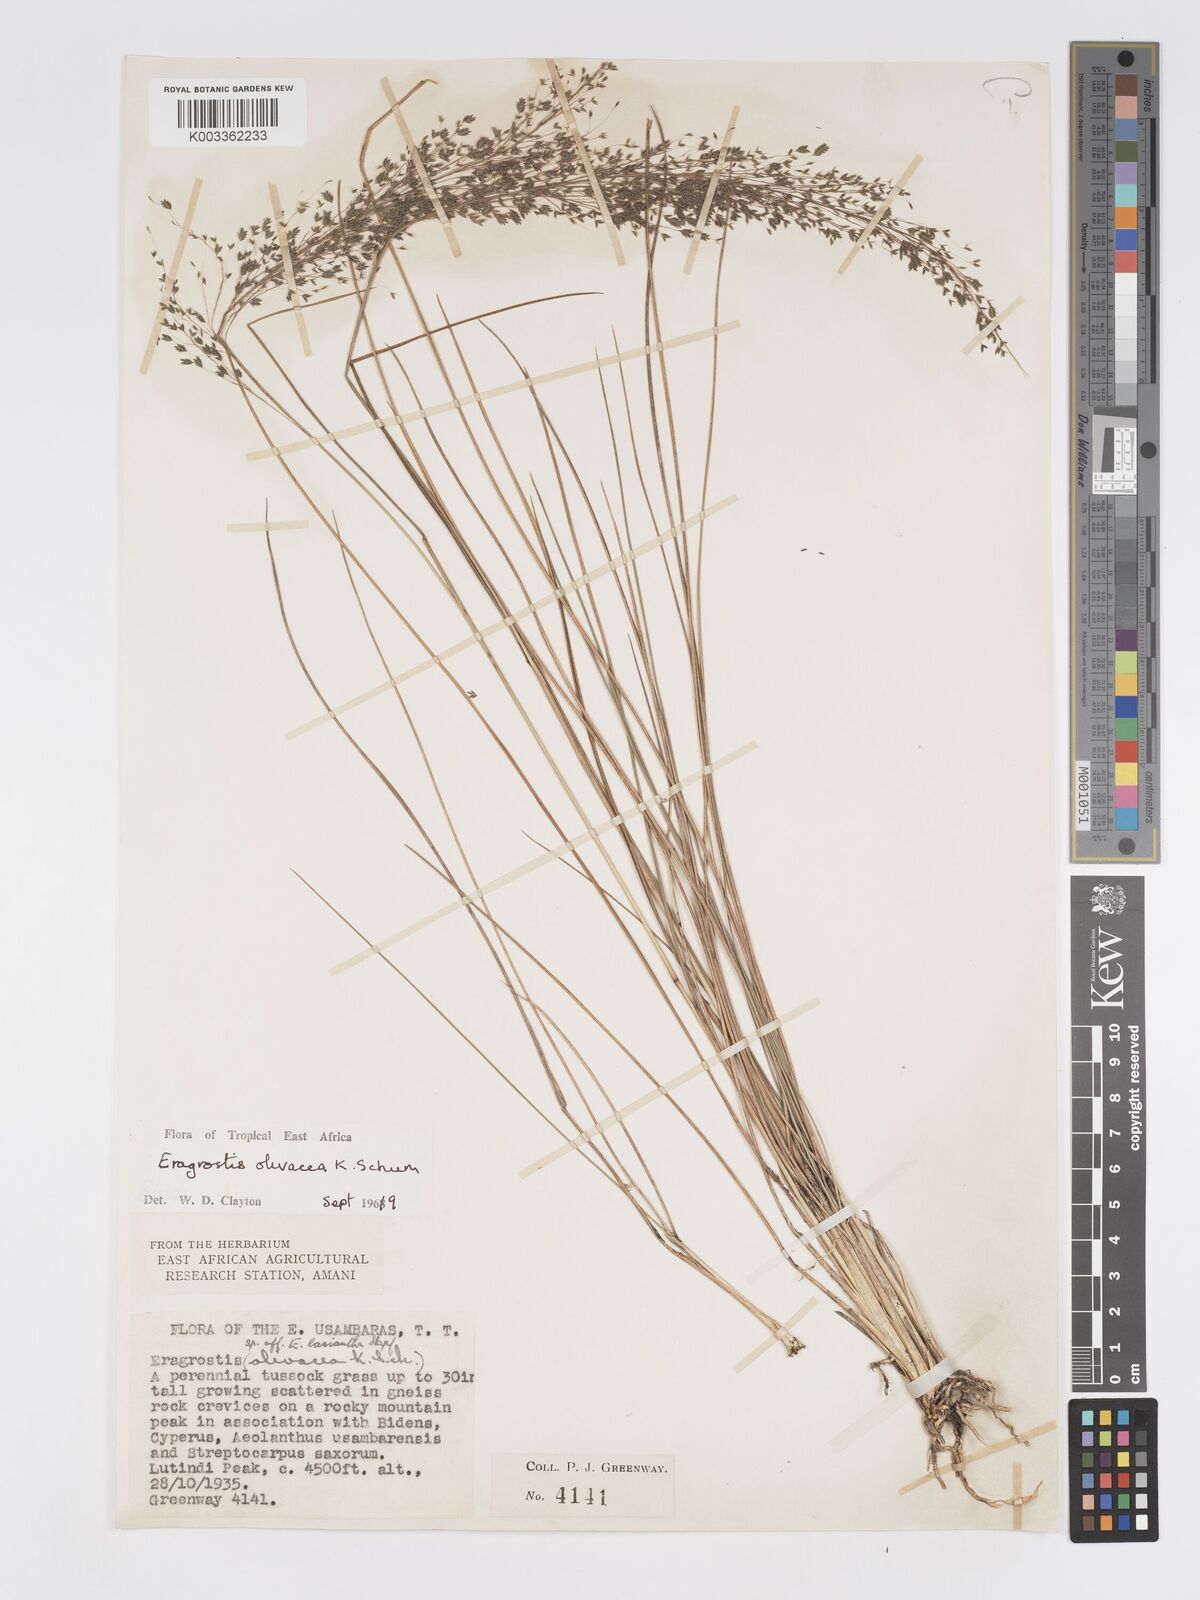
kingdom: Plantae
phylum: Tracheophyta
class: Liliopsida
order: Poales
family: Poaceae
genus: Eragrostis
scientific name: Eragrostis olivacea
